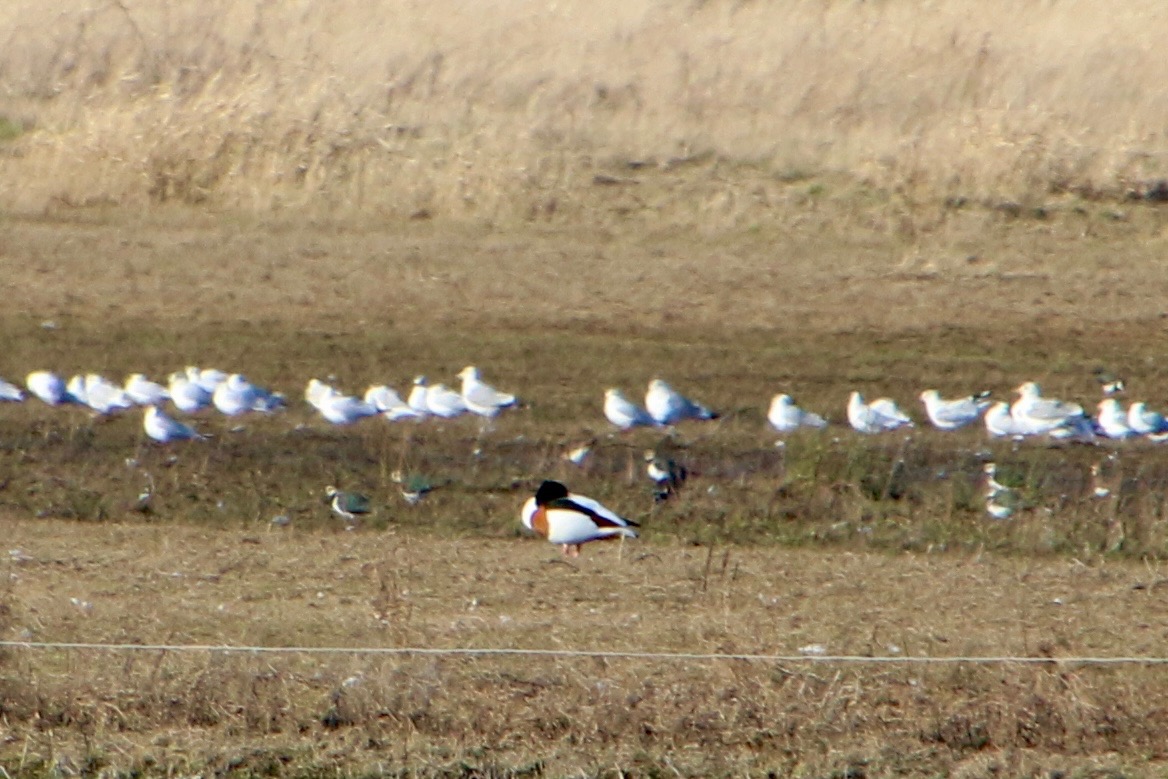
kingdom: Animalia
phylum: Chordata
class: Aves
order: Anseriformes
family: Anatidae
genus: Tadorna
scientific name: Tadorna tadorna
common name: Gravand
